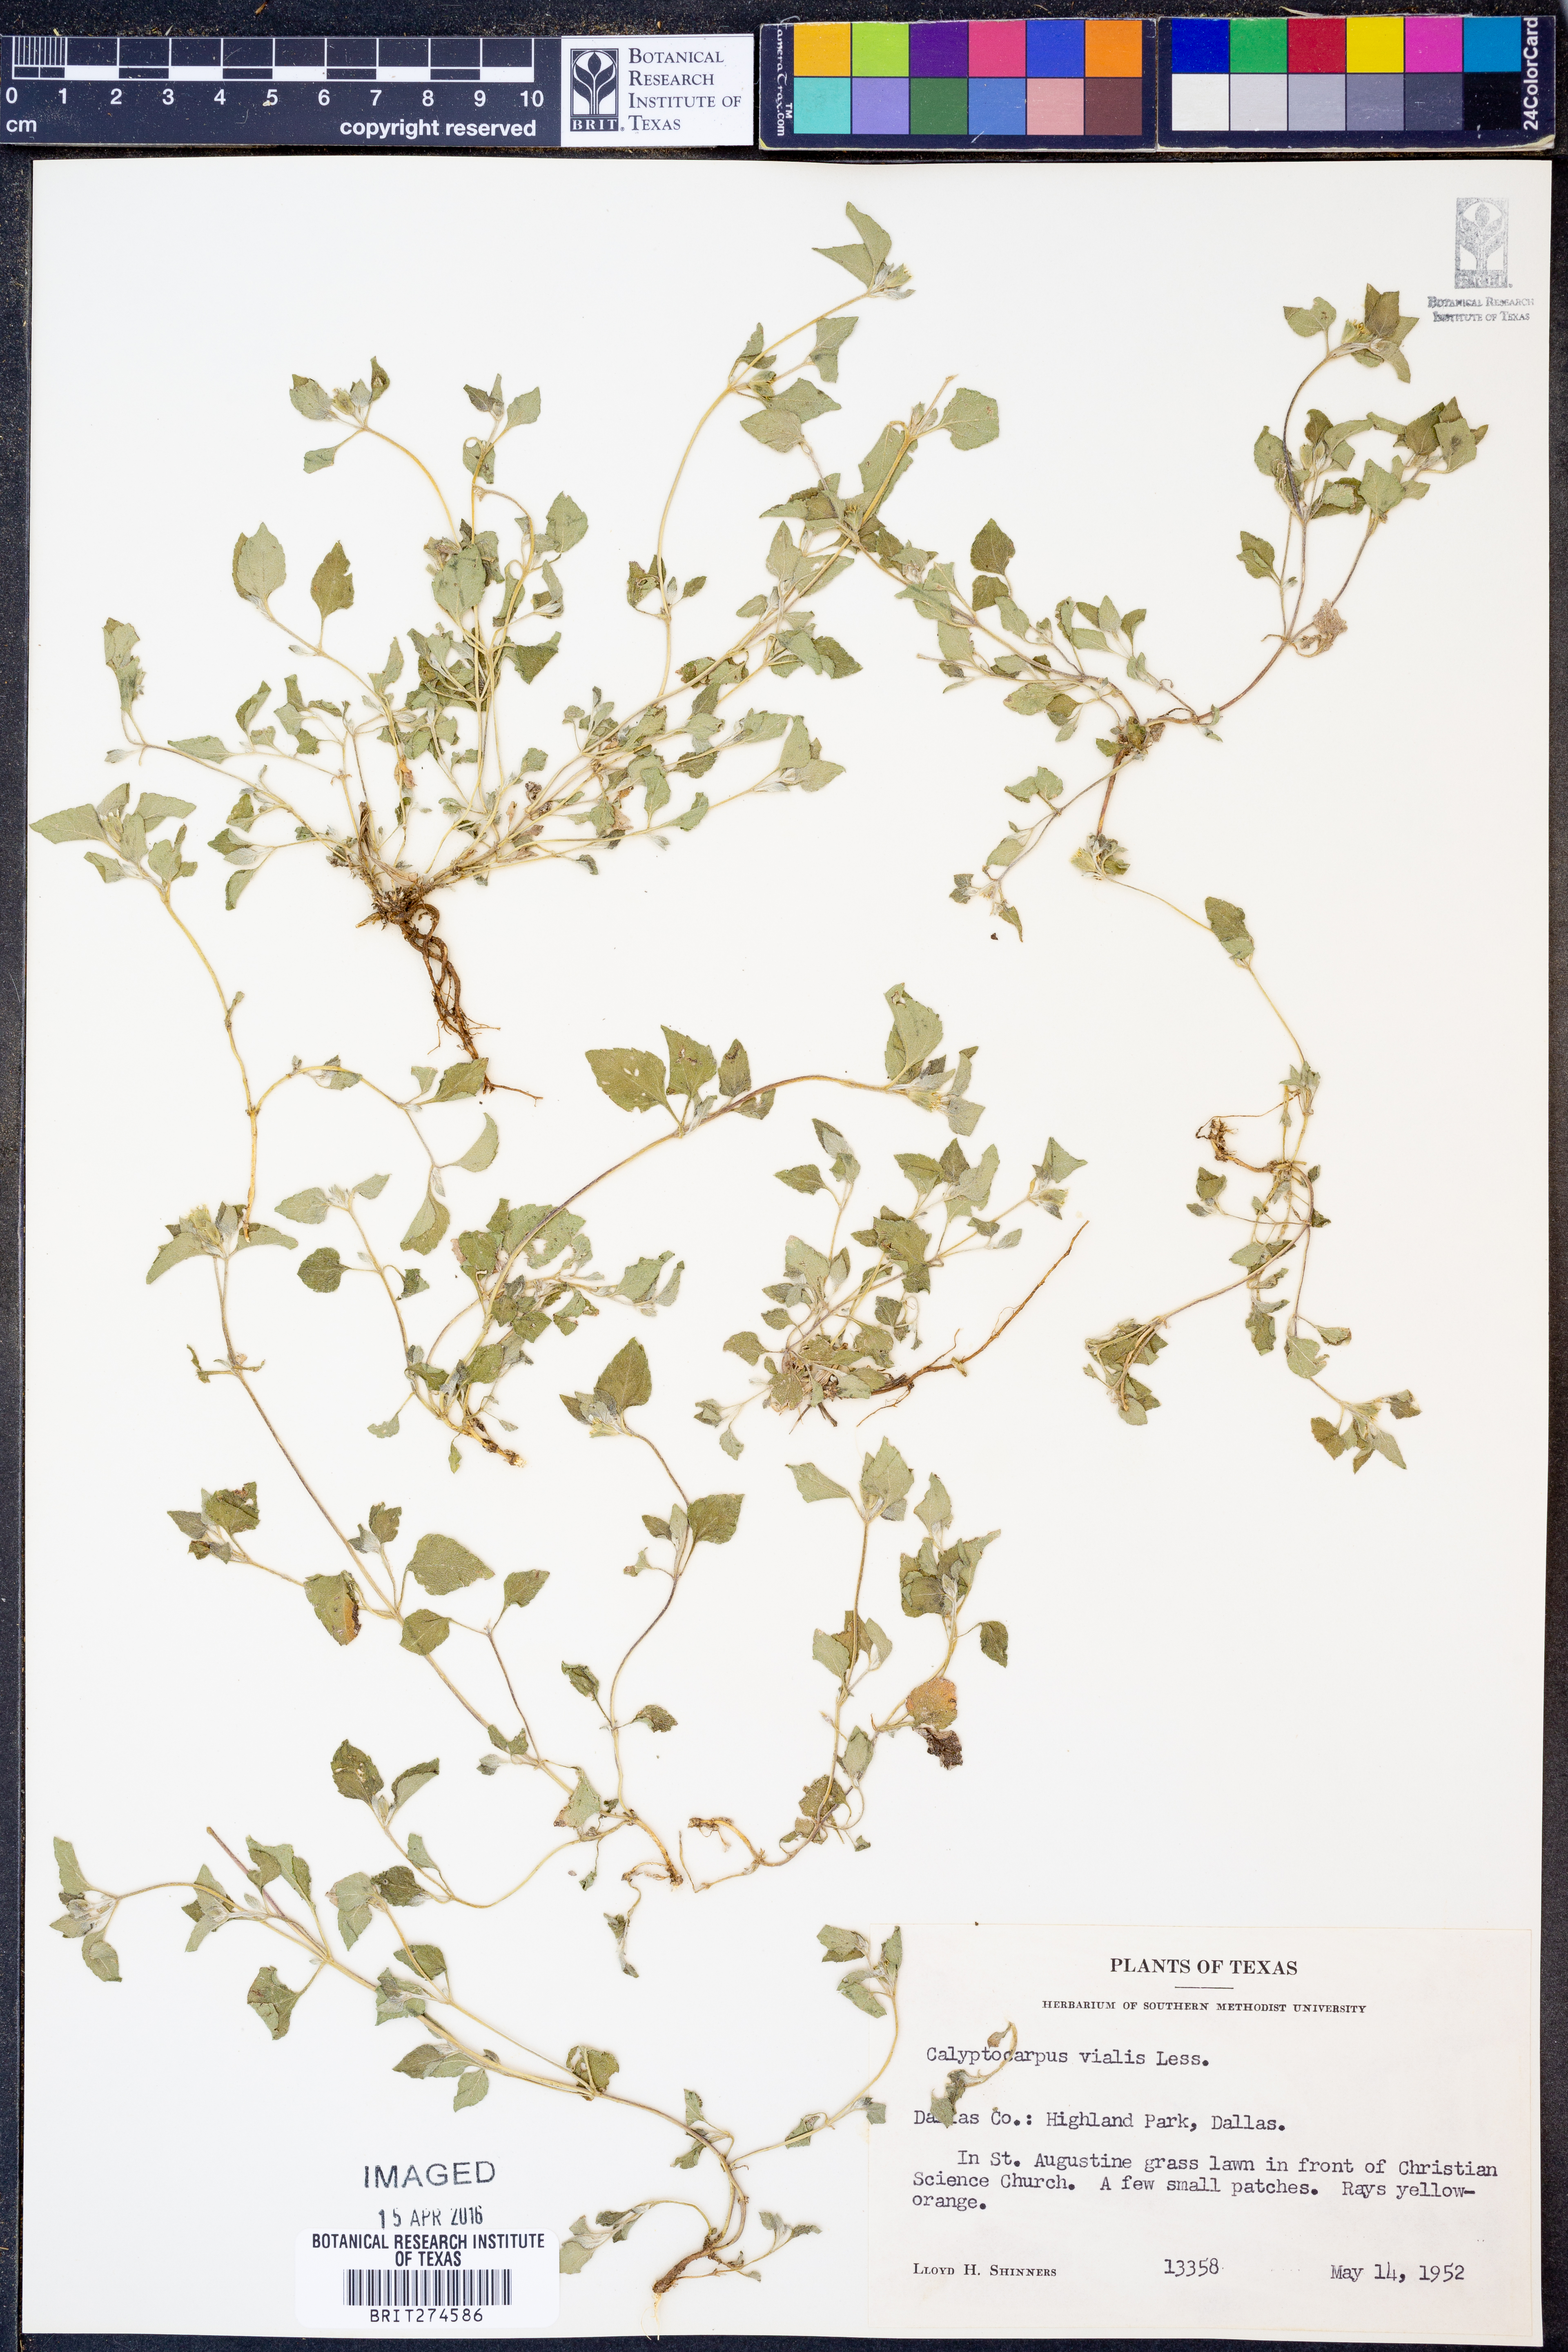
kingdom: Plantae
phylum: Tracheophyta
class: Magnoliopsida
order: Asterales
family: Asteraceae
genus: Calyptocarpus
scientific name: Calyptocarpus vialis
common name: Straggler daisy
